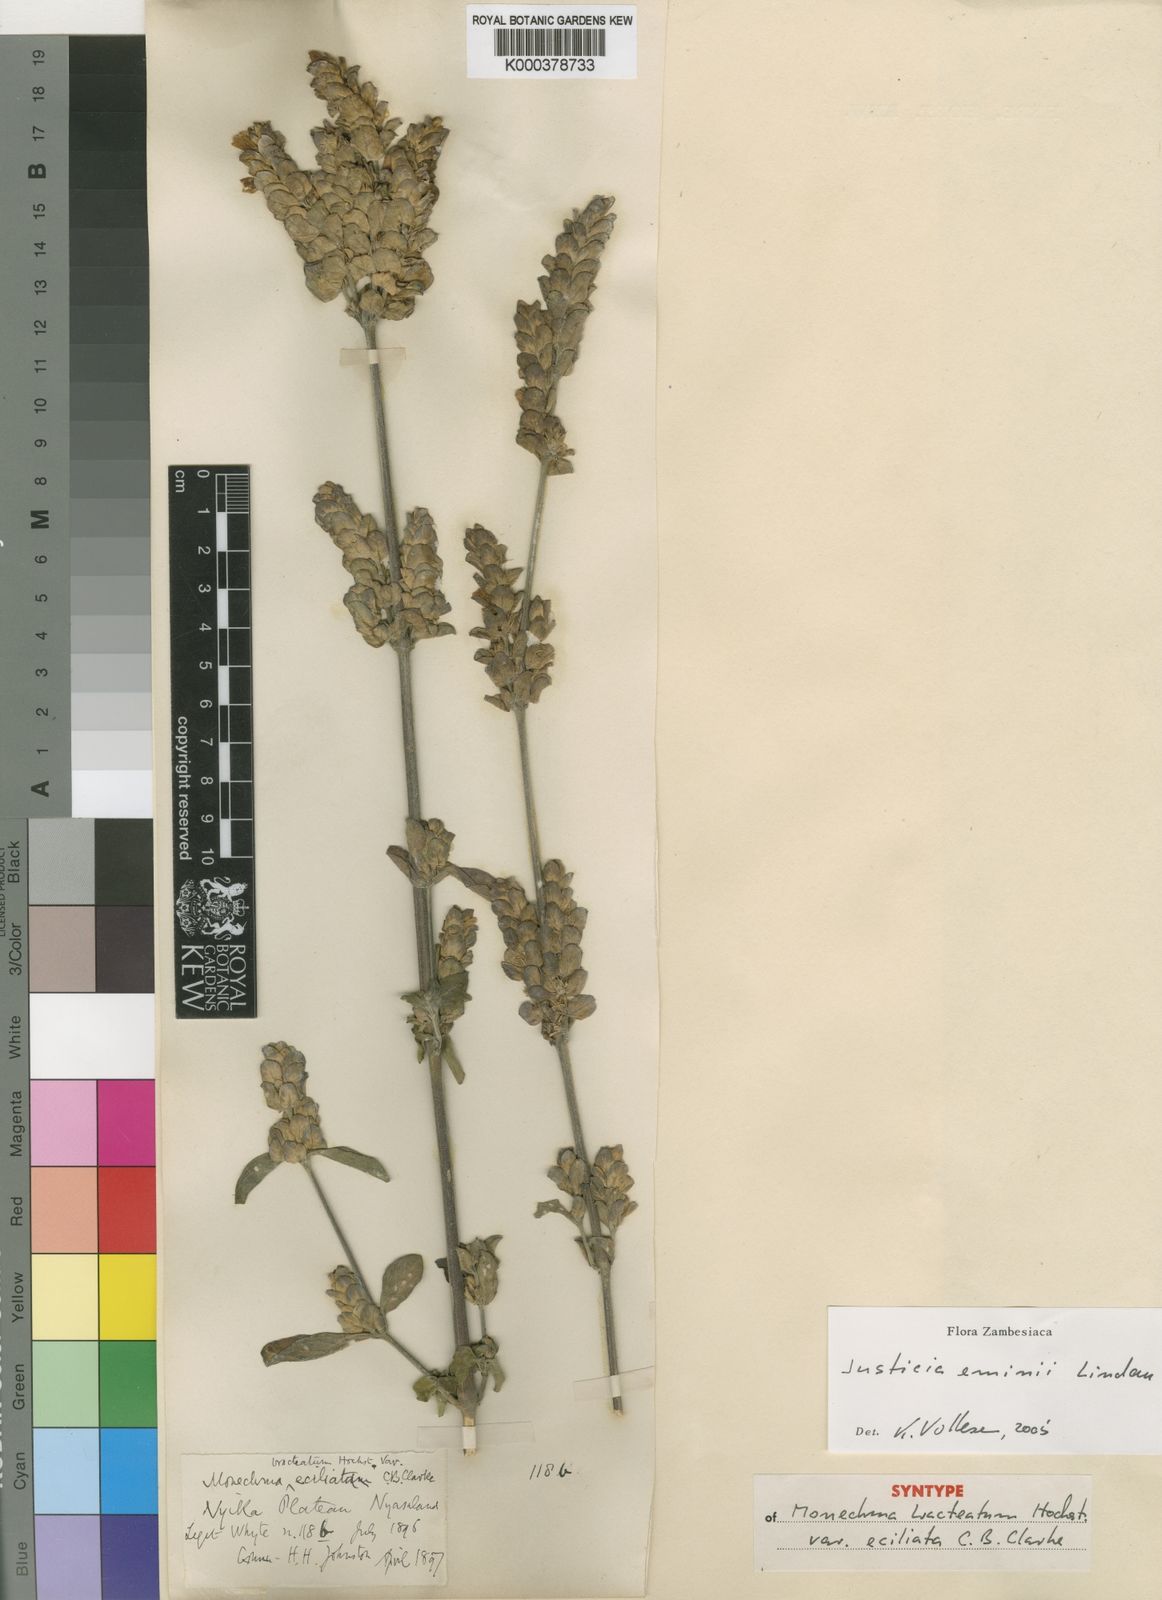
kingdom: Plantae
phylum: Tracheophyta
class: Magnoliopsida
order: Lamiales
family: Acanthaceae
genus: Monechma
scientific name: Monechma debile
